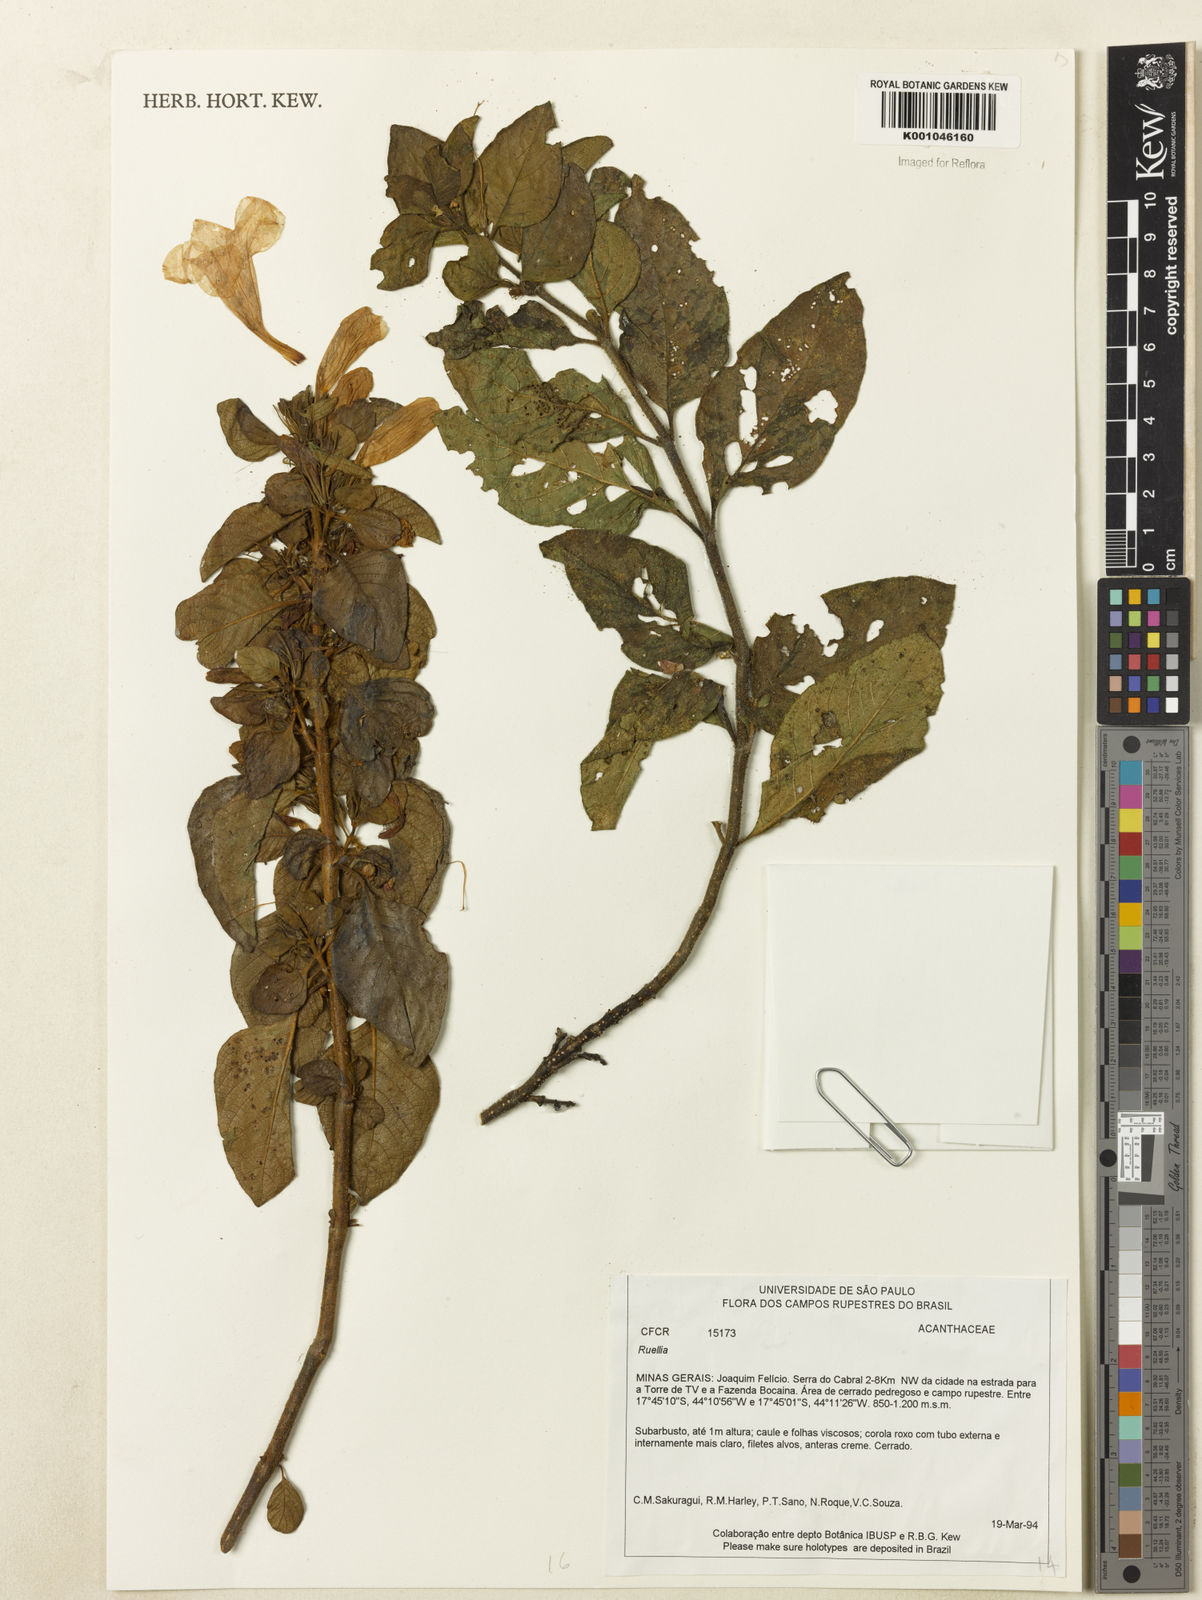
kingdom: Plantae
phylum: Tracheophyta
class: Magnoliopsida
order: Lamiales
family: Acanthaceae
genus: Ruellia
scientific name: Ruellia
